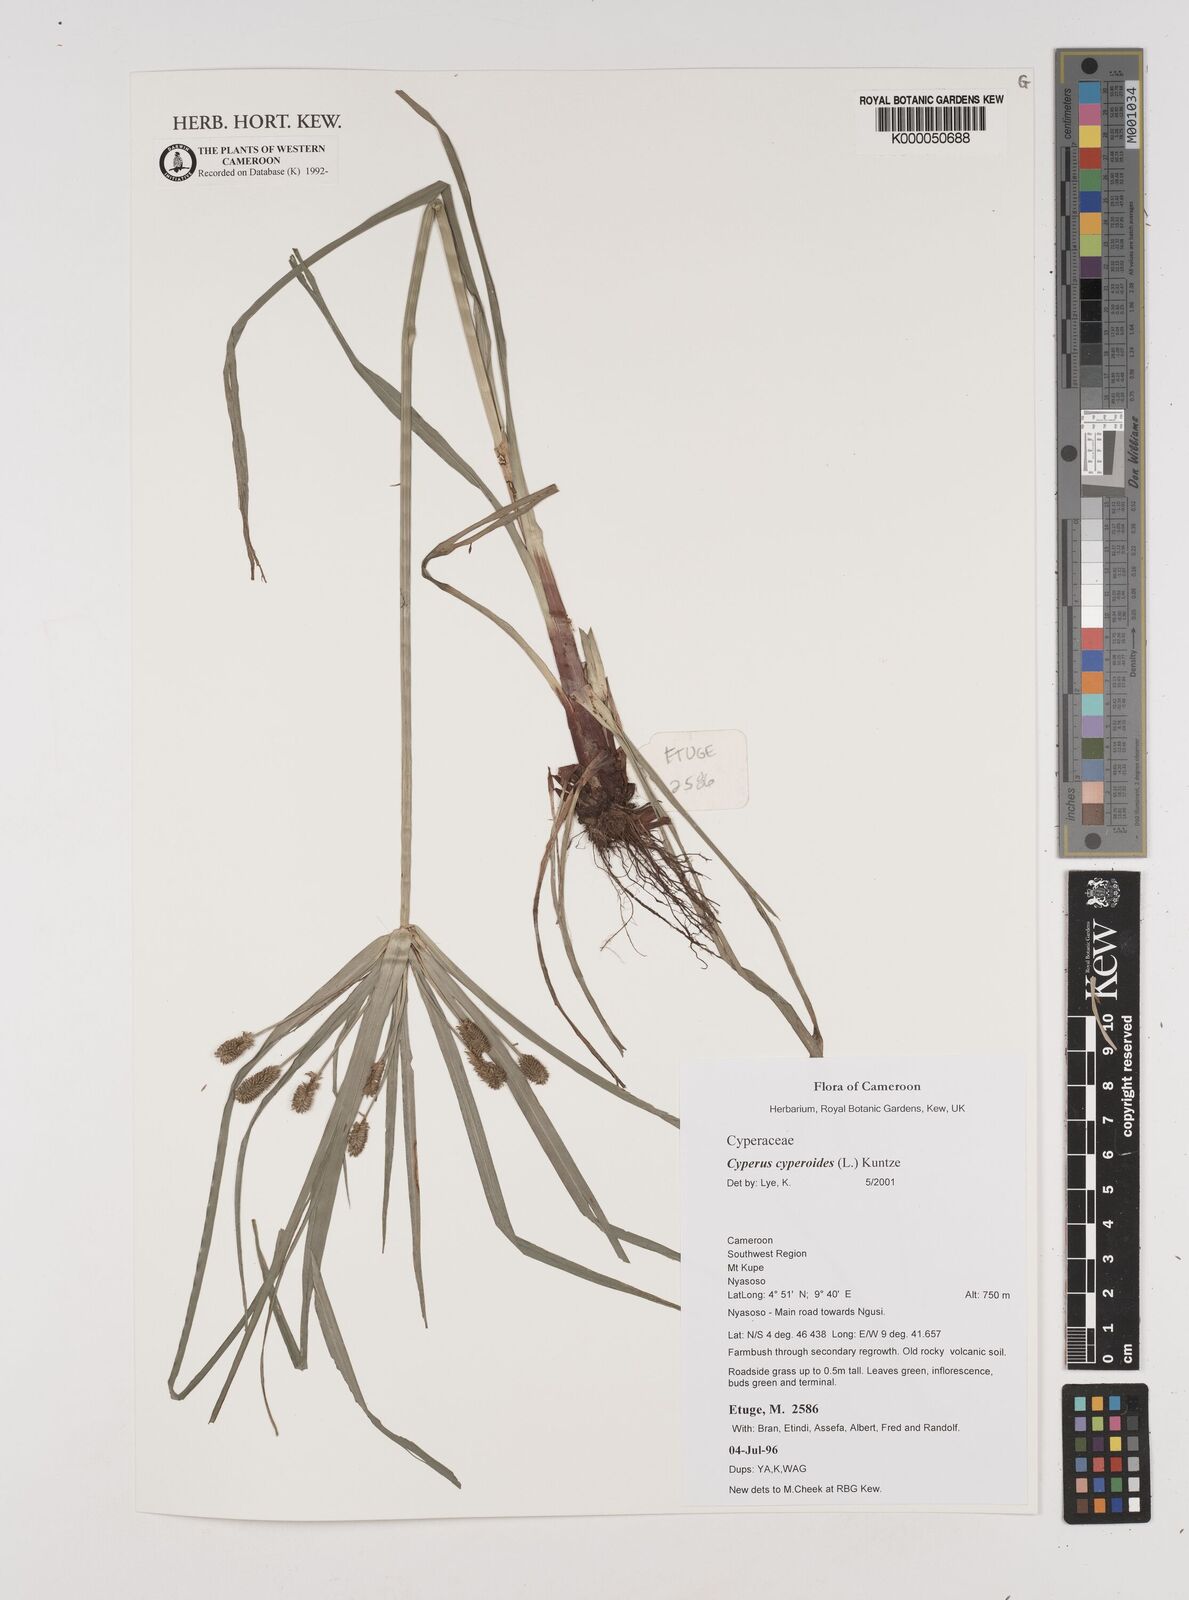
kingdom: Plantae
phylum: Tracheophyta
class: Liliopsida
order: Poales
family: Cyperaceae
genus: Cyperus
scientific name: Cyperus cyperoides
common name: Pacific island flat sedge
